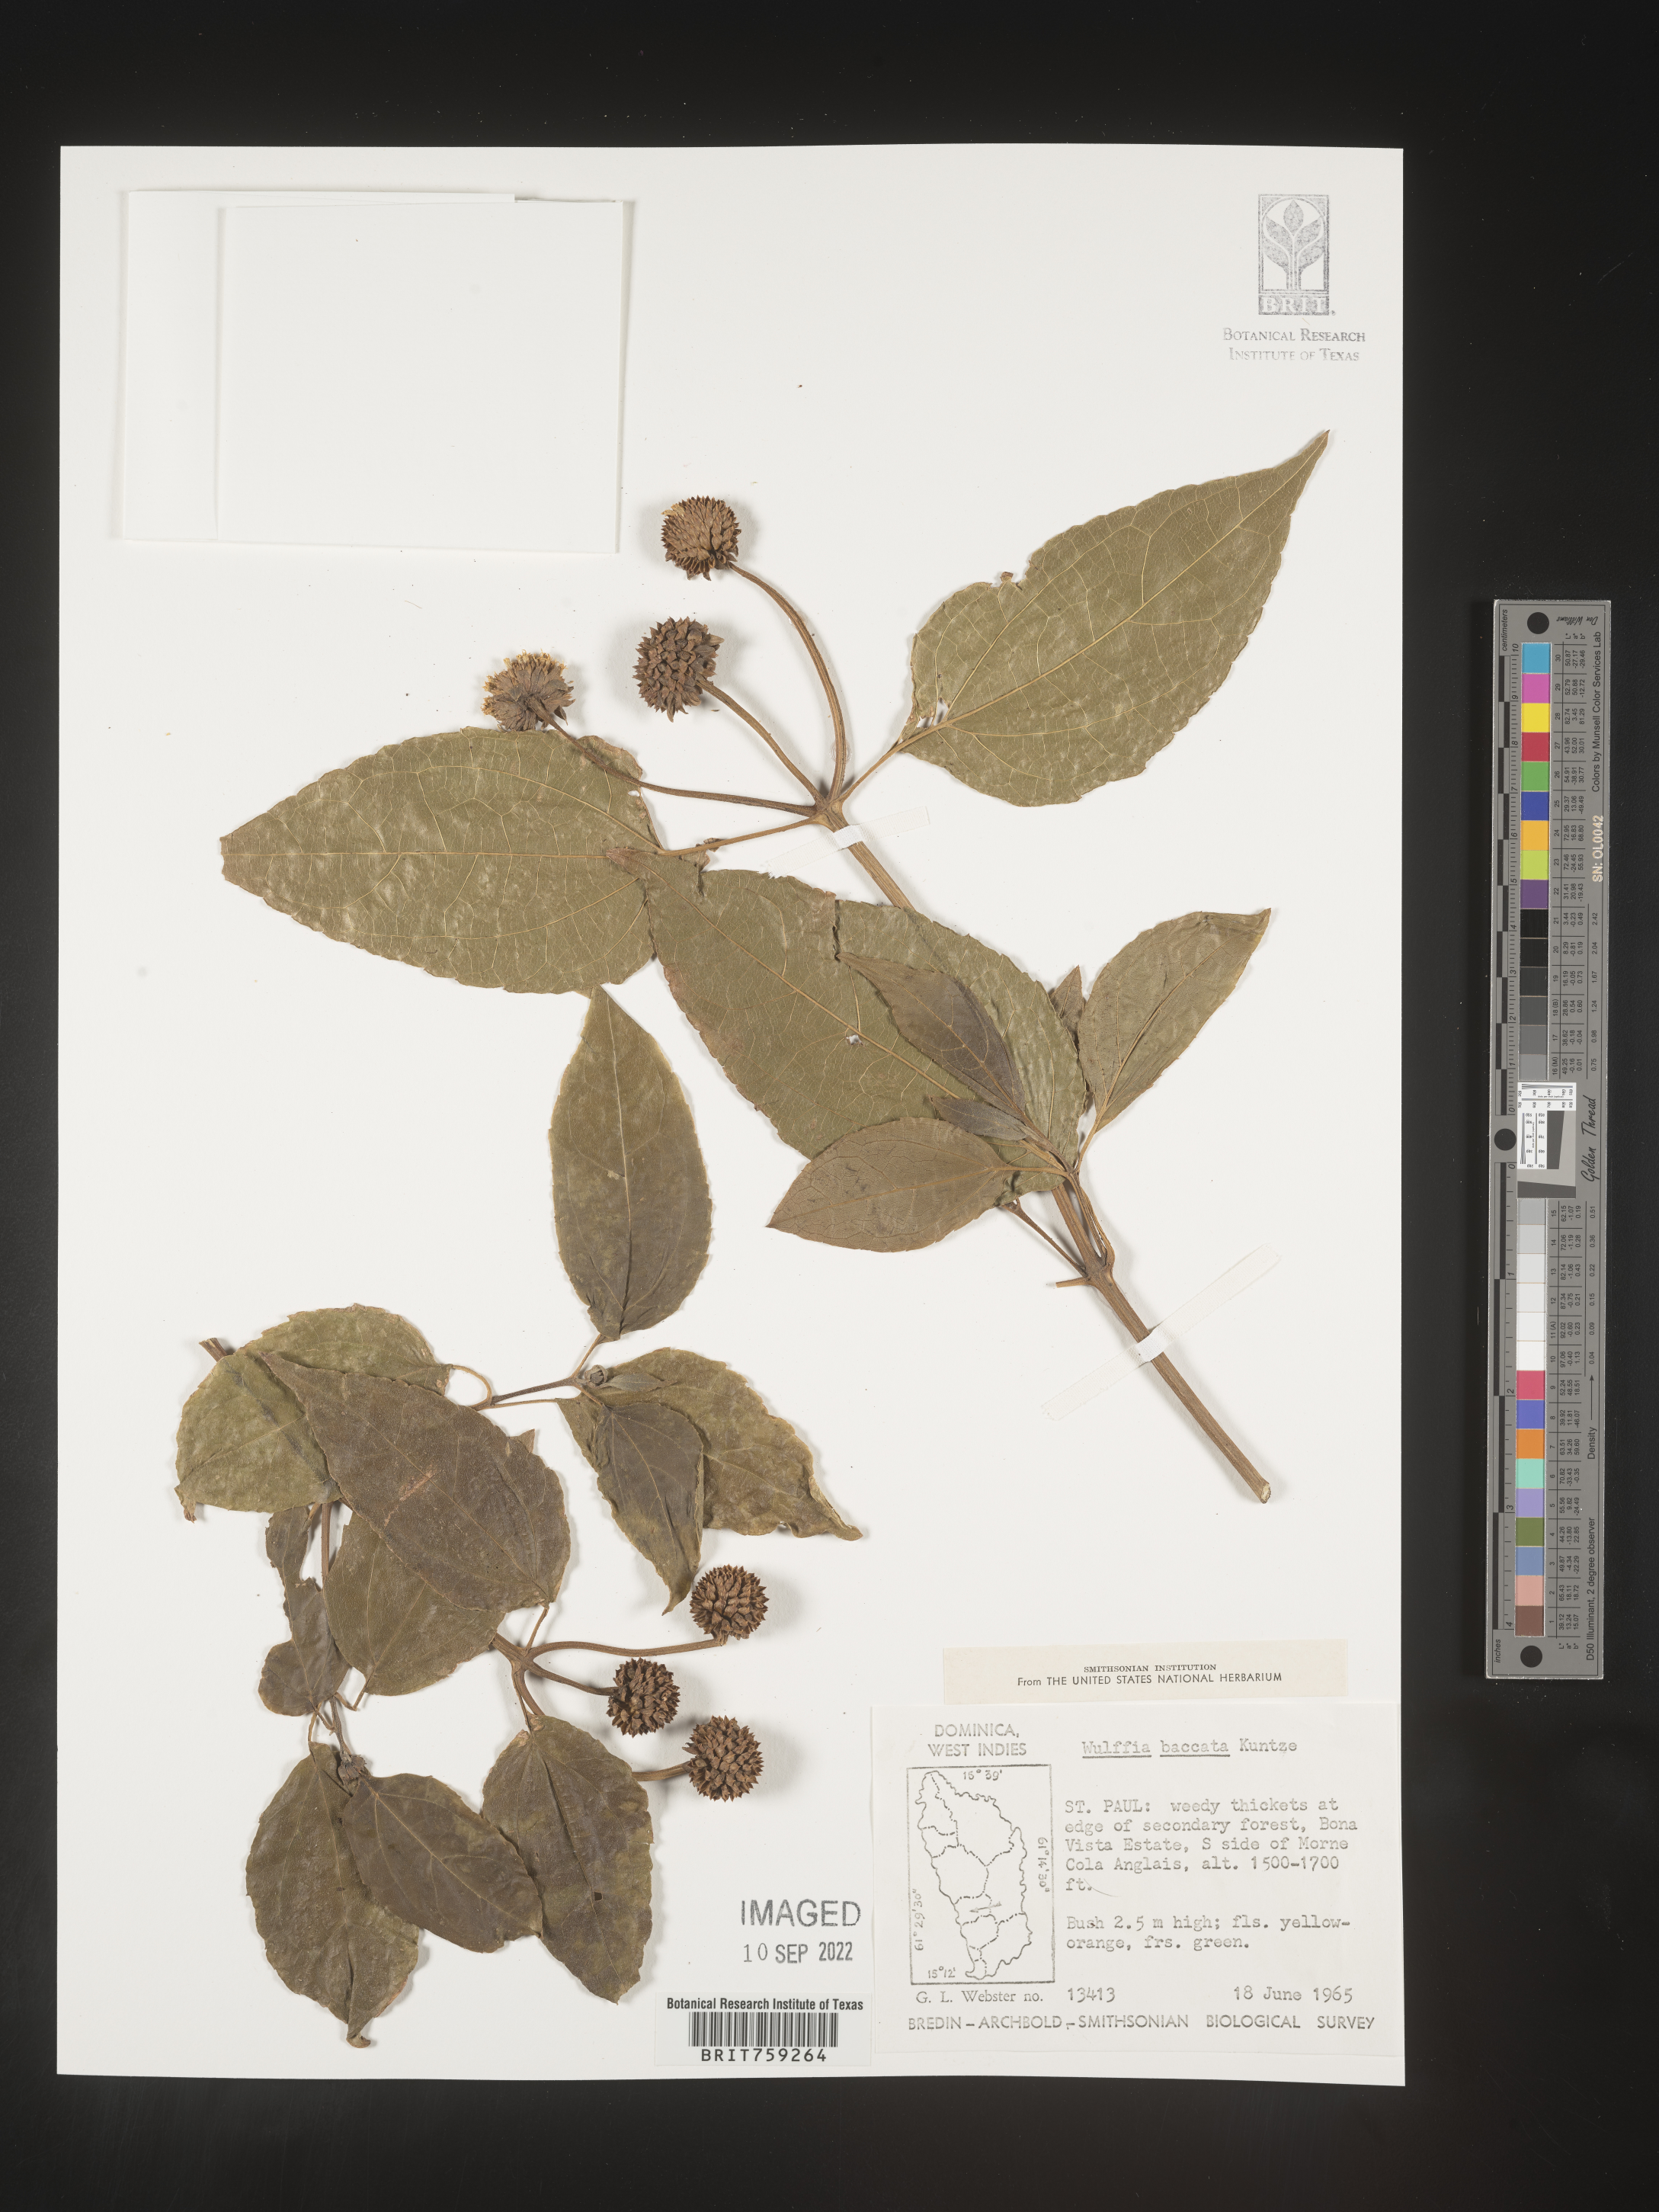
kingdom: Plantae
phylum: Tracheophyta
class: Magnoliopsida
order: Asterales
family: Asteraceae
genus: Tilesia
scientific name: Tilesia
